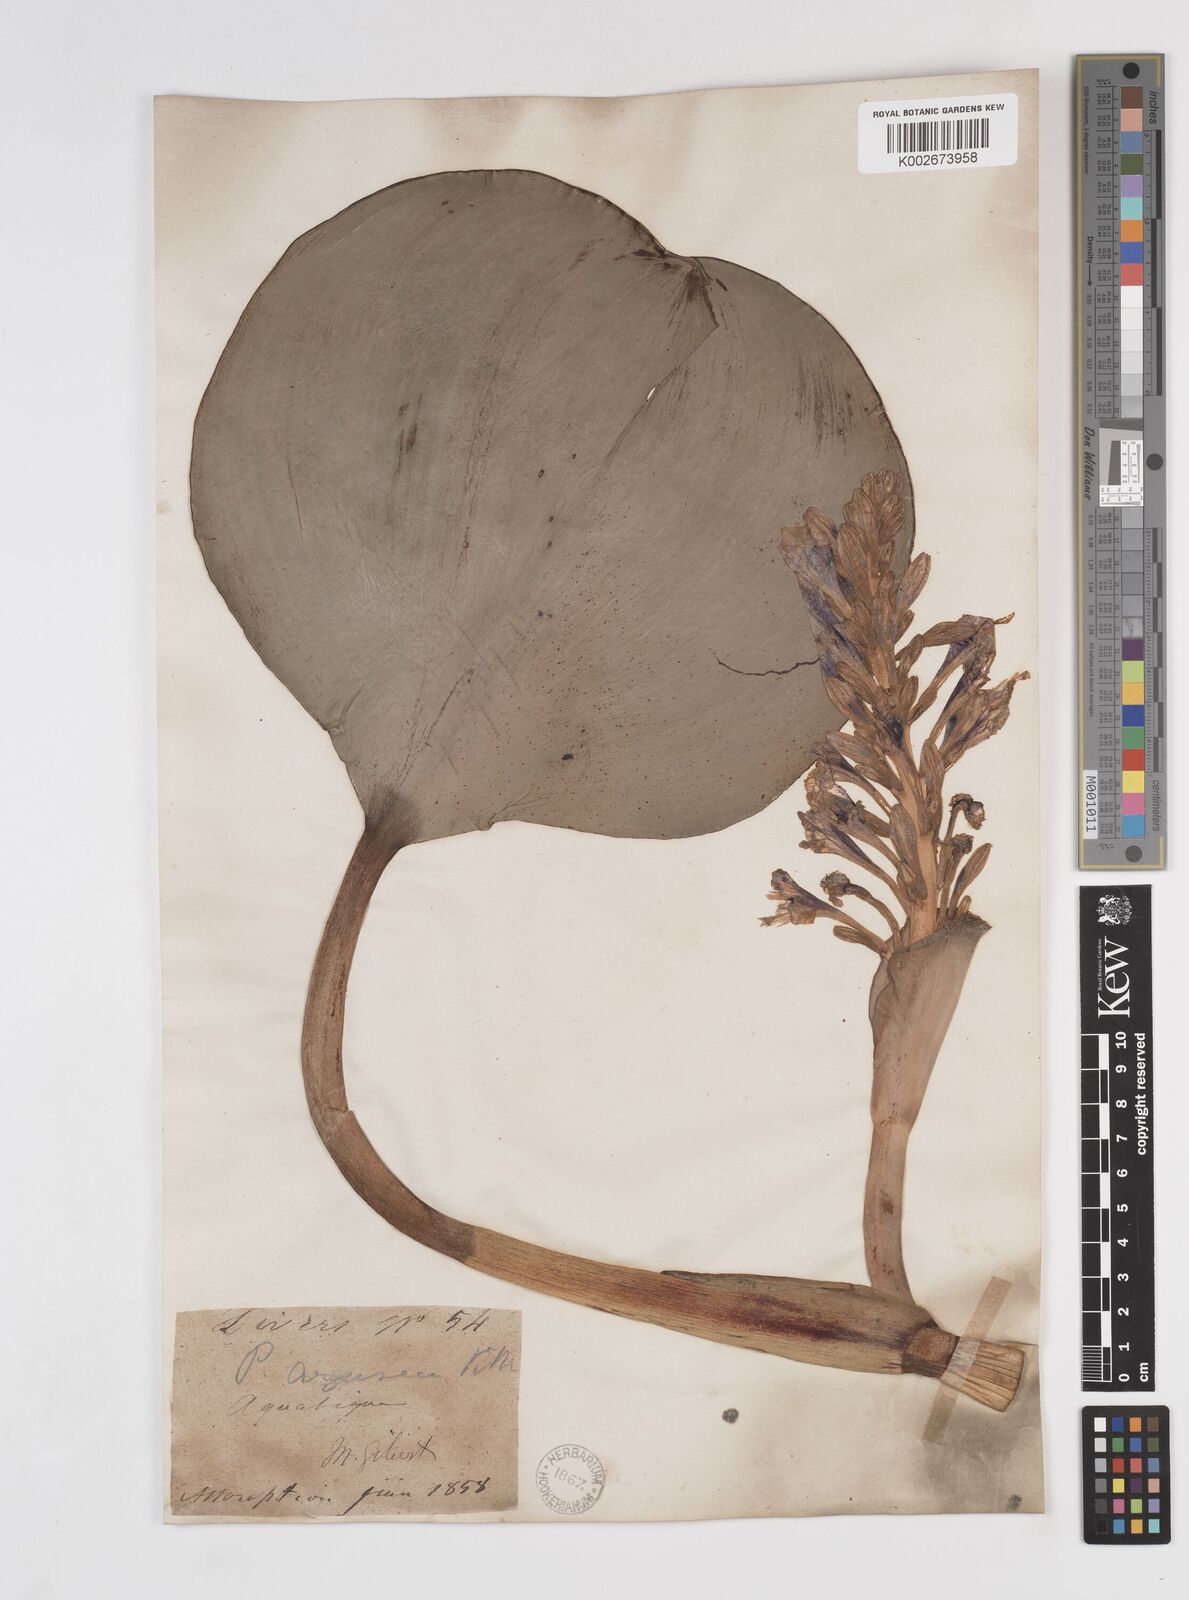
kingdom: Plantae
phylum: Tracheophyta
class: Liliopsida
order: Commelinales
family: Pontederiaceae
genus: Pontederia
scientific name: Pontederia azurea
